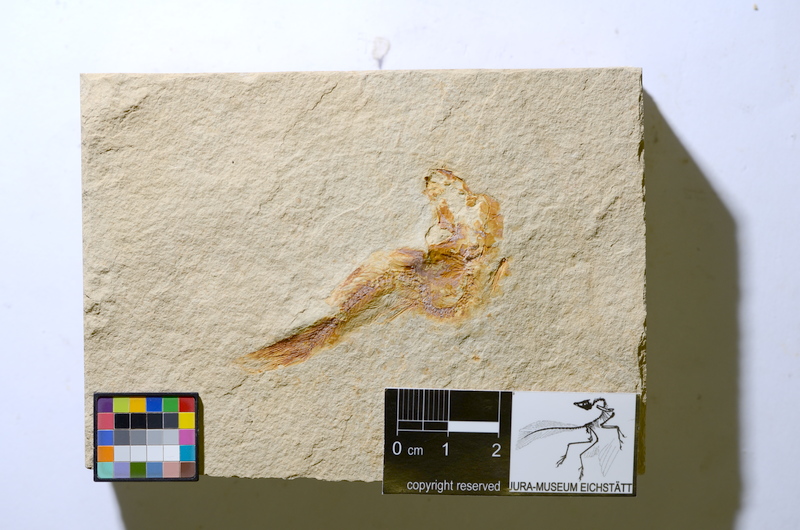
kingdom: Animalia
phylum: Chordata
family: Ascalaboidae
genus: Tharsis
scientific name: Tharsis
